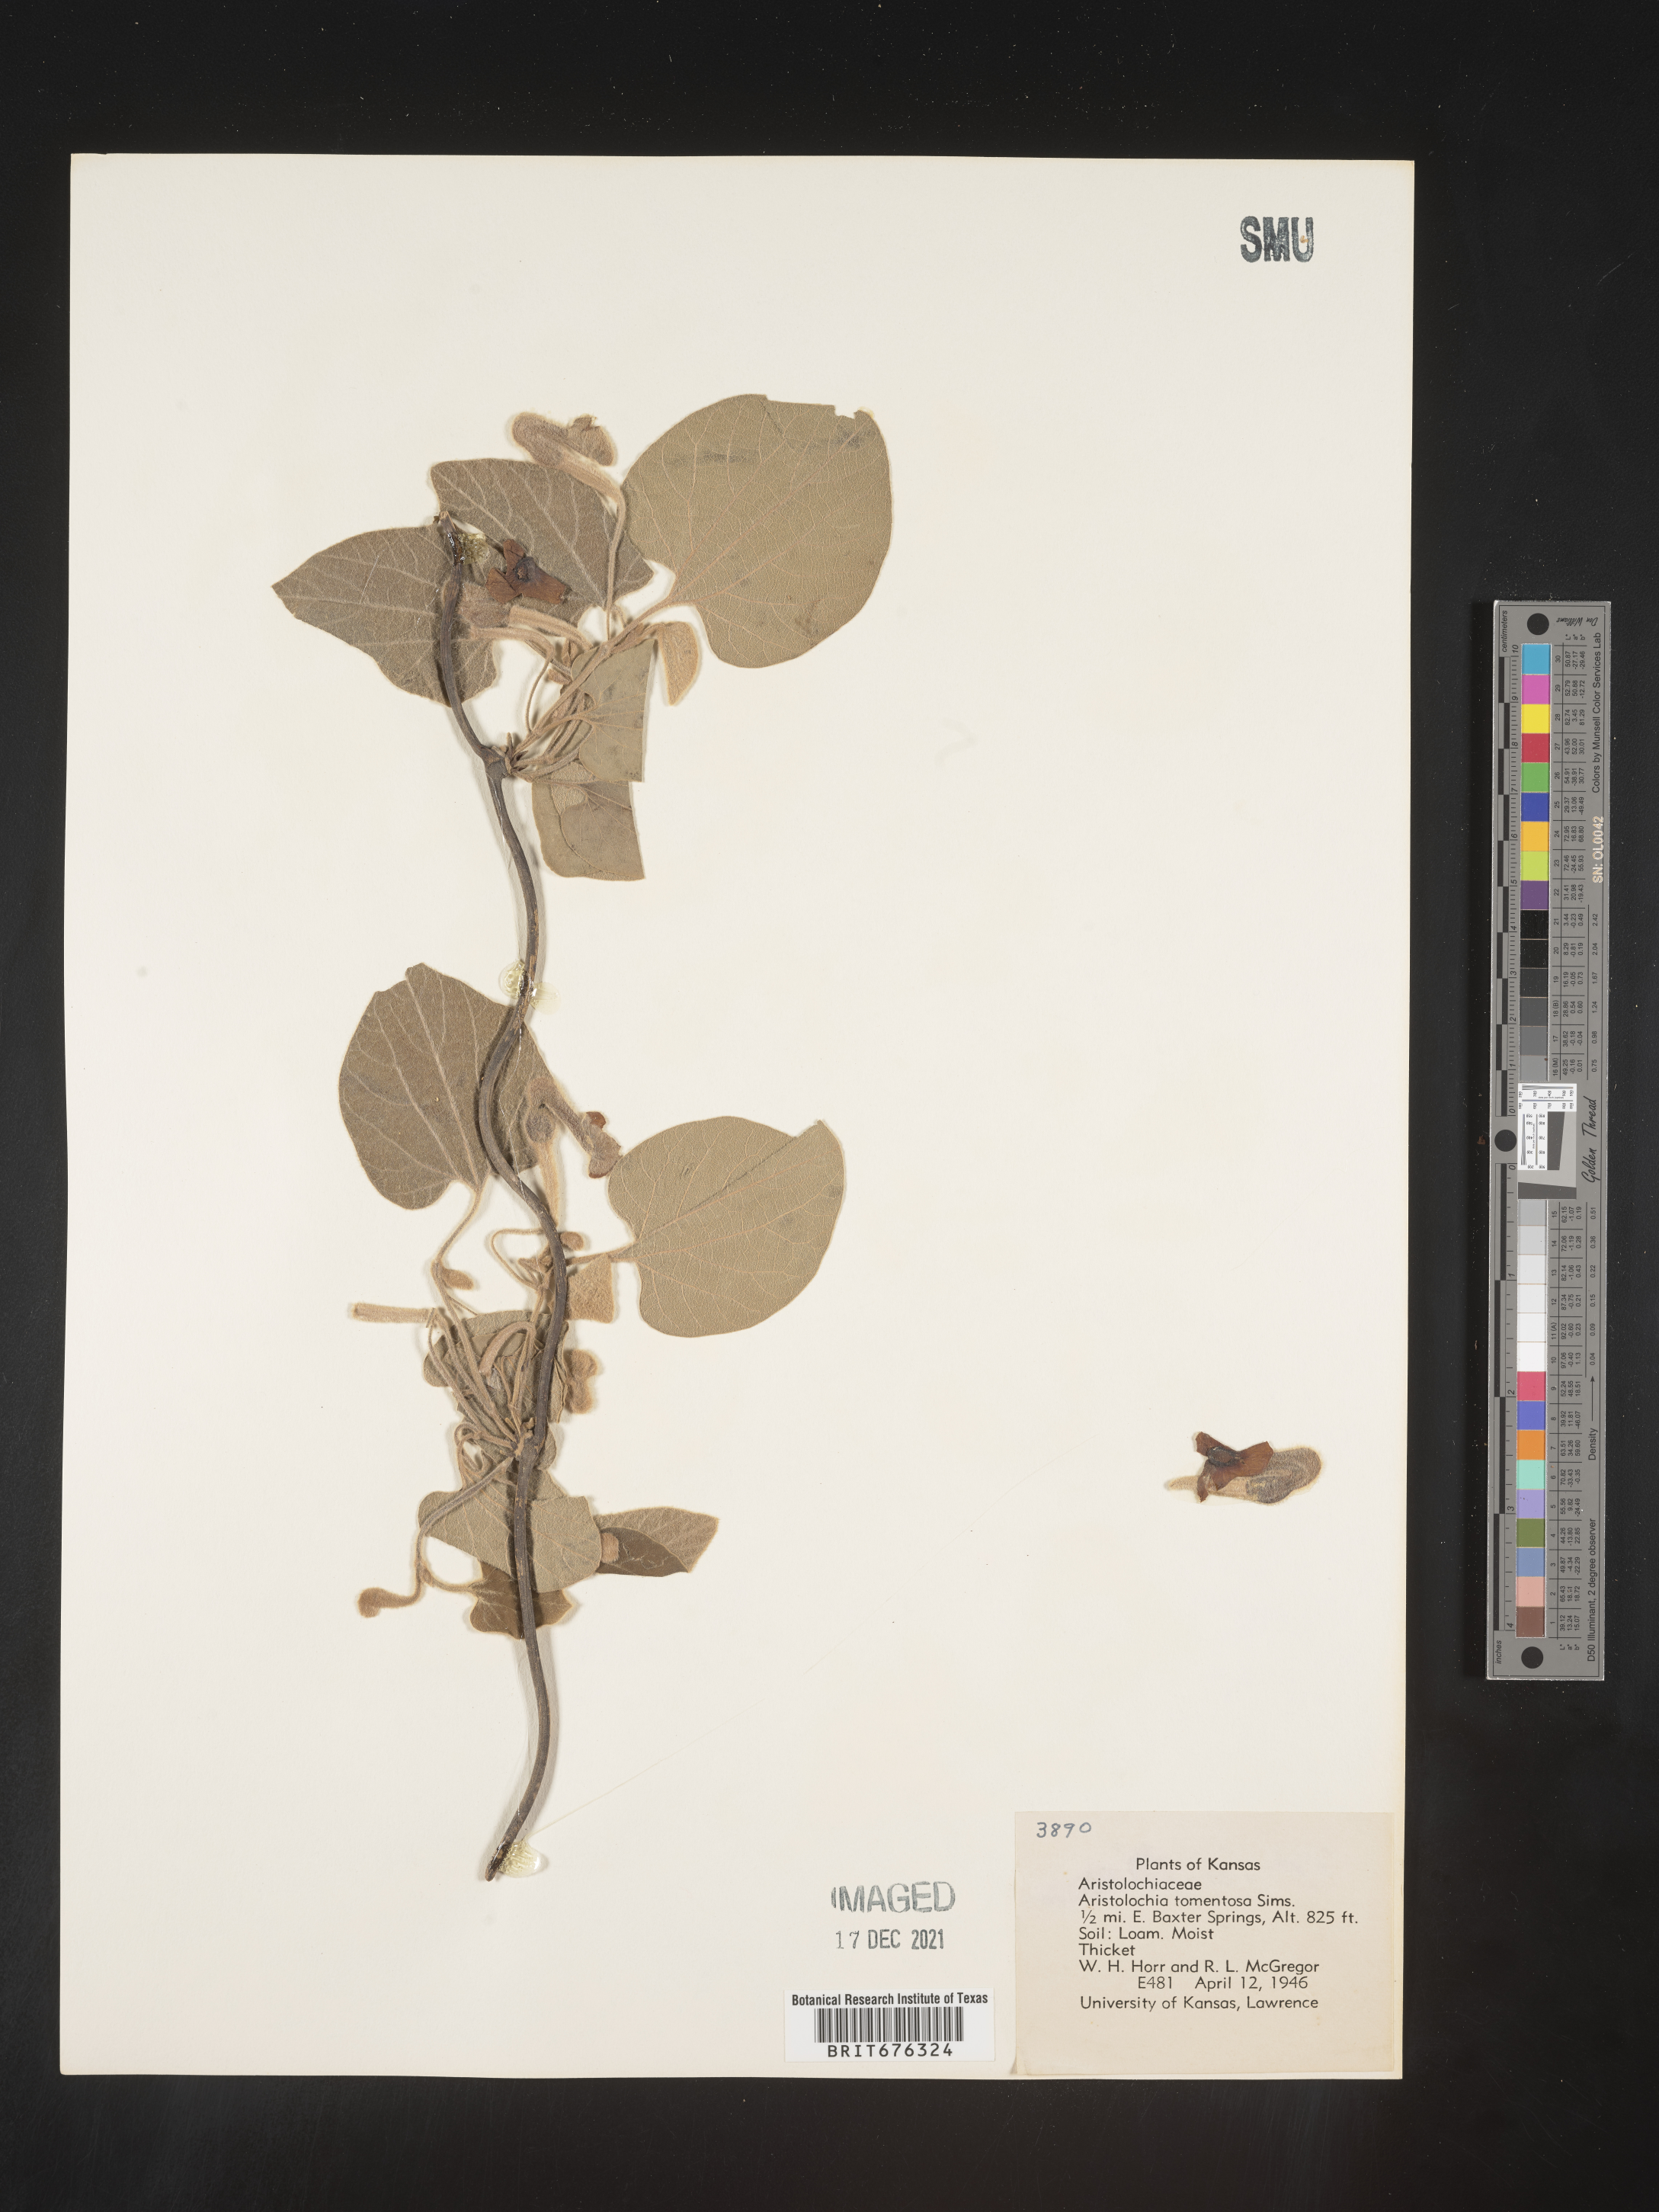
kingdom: Plantae
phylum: Tracheophyta
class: Magnoliopsida
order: Piperales
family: Aristolochiaceae
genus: Isotrema
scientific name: Isotrema tomentosum
